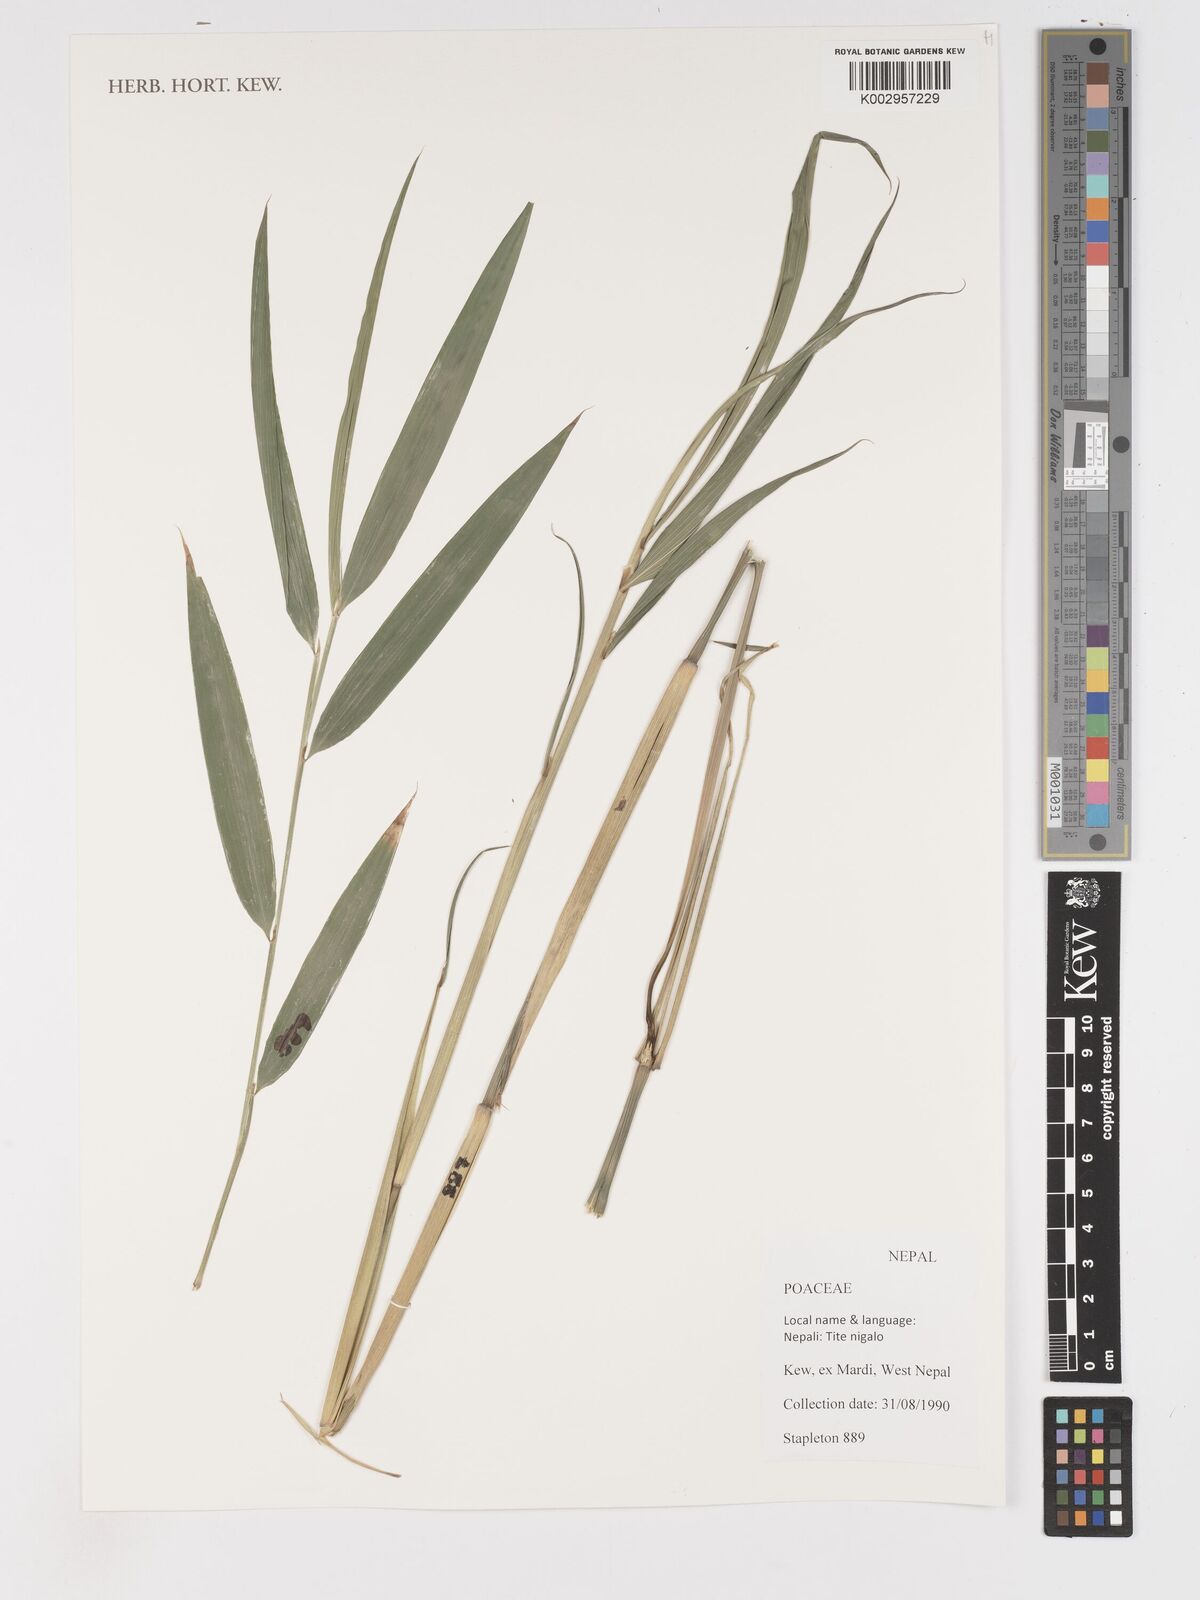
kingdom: Plantae
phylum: Tracheophyta
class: Liliopsida
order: Poales
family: Poaceae
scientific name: Poaceae
